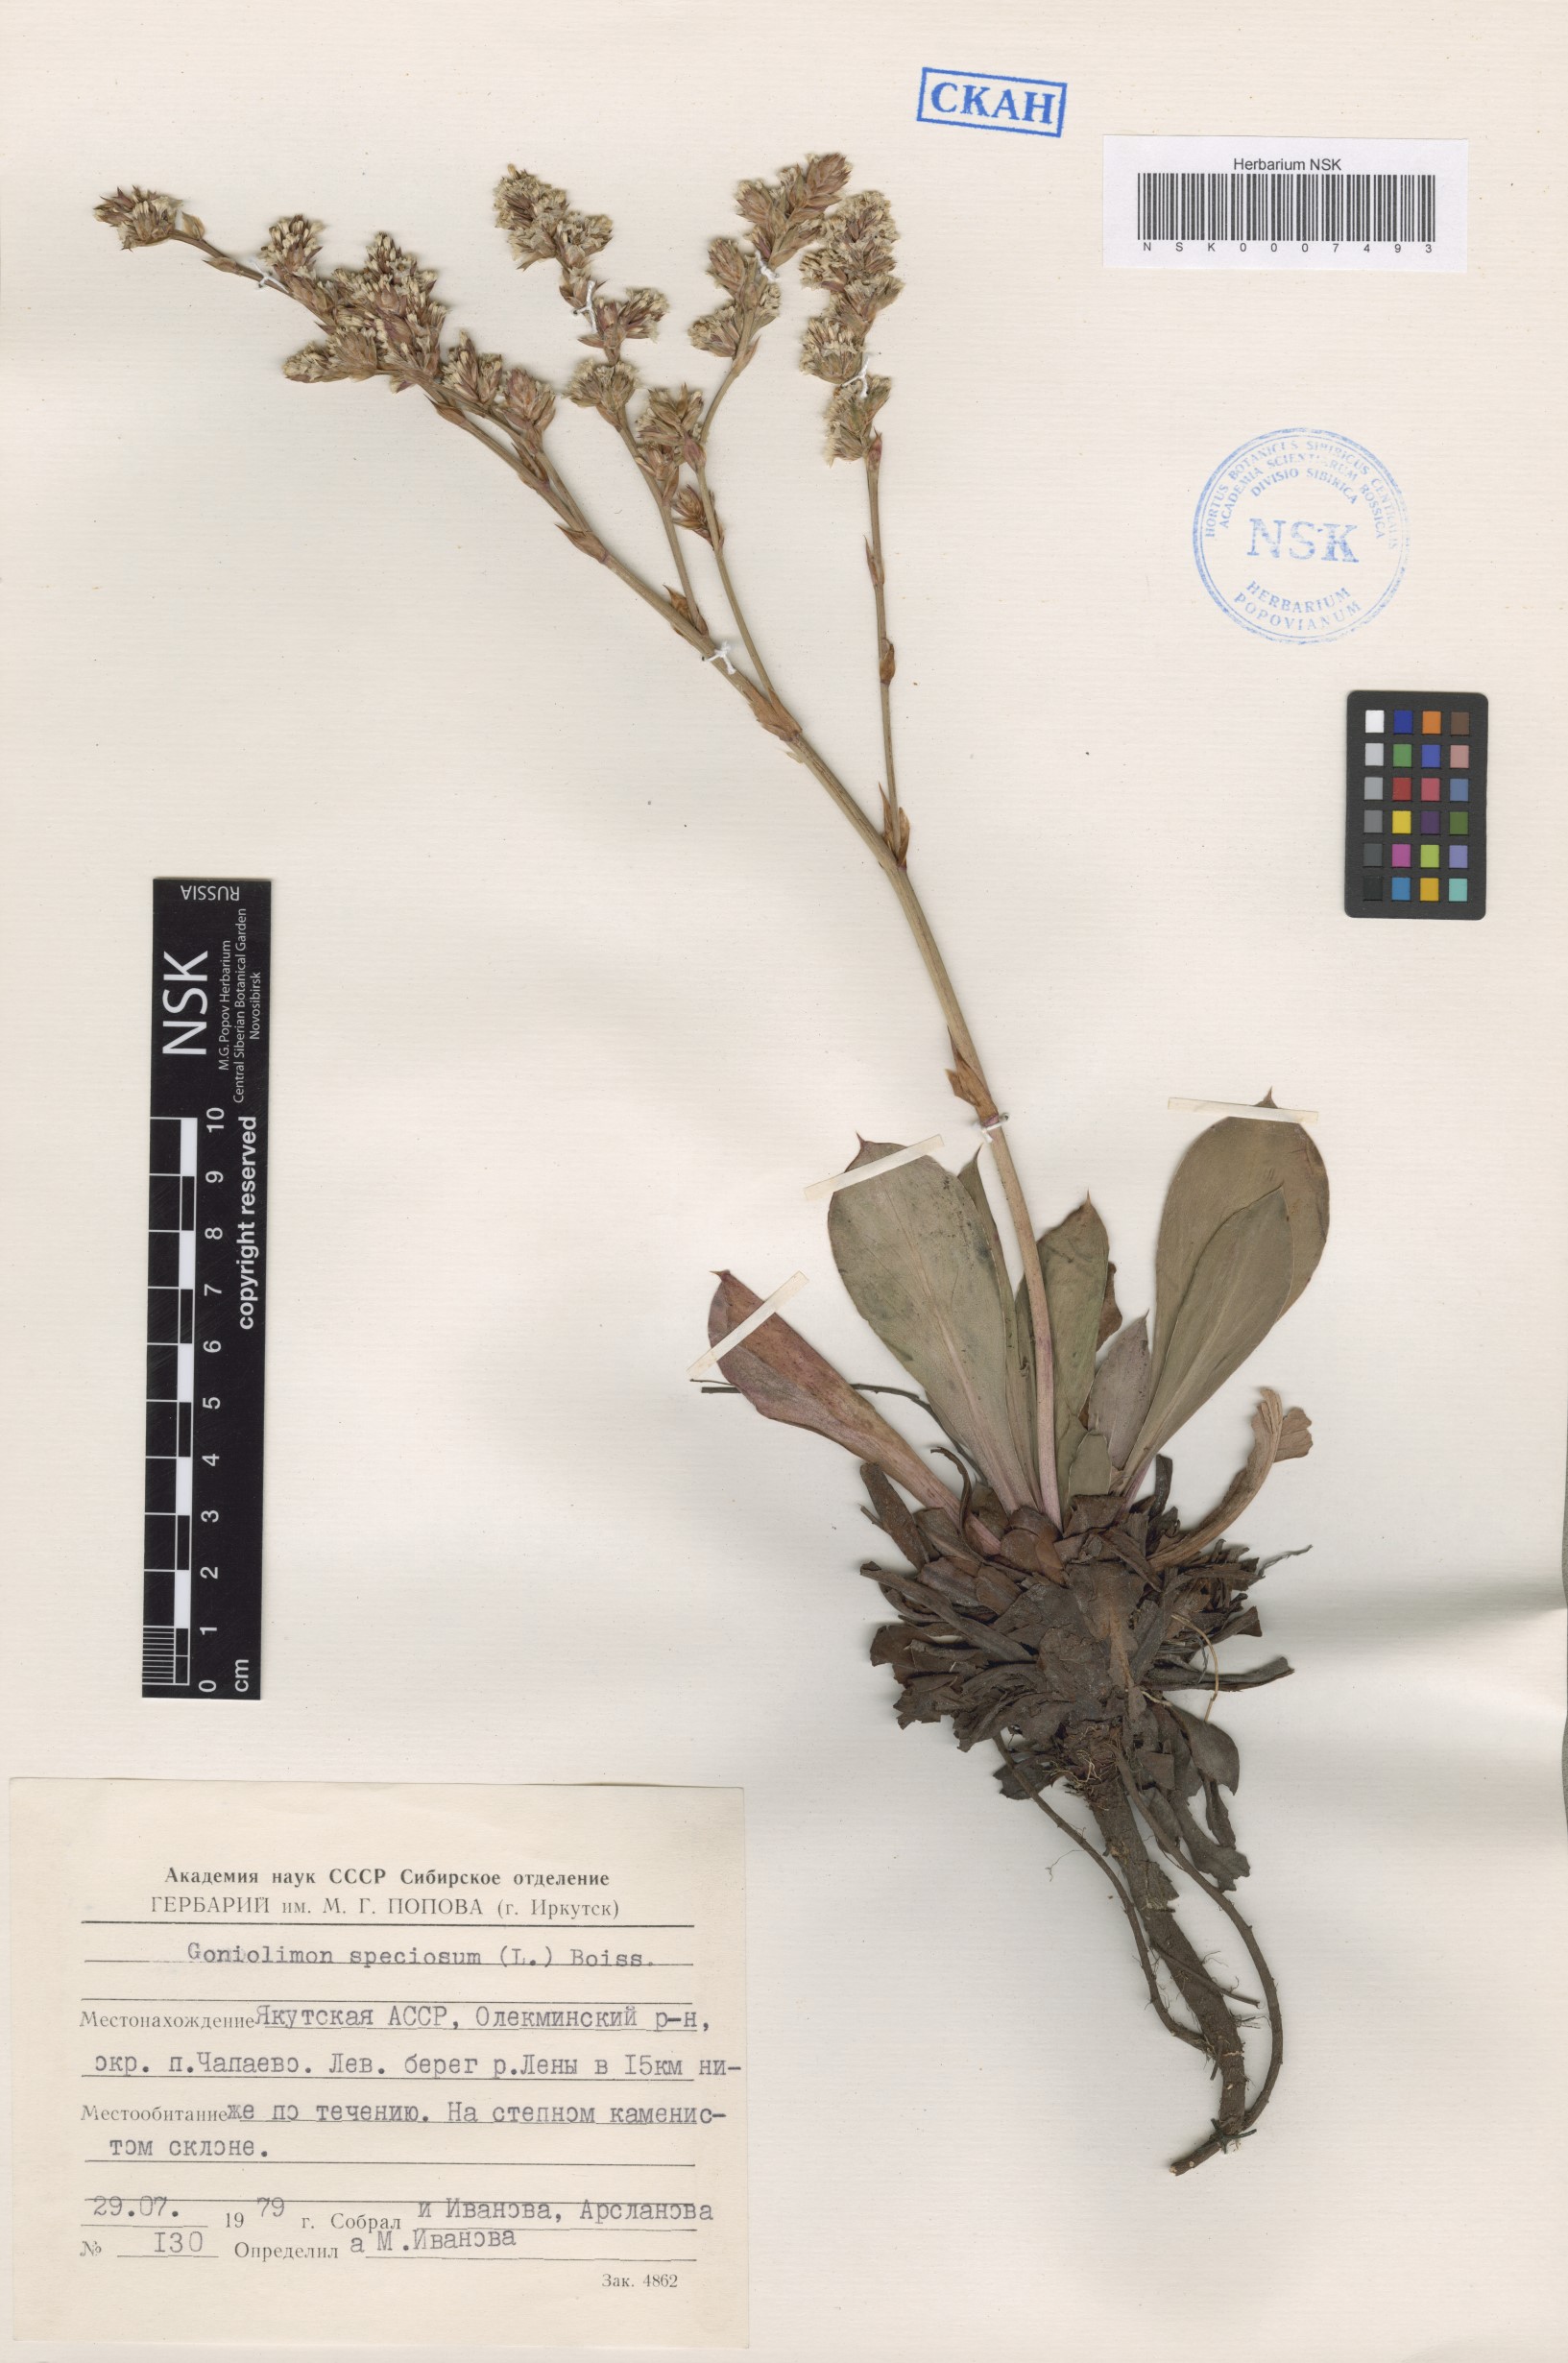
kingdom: Plantae
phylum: Tracheophyta
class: Magnoliopsida
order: Caryophyllales
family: Plumbaginaceae
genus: Goniolimon
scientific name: Goniolimon speciosum
